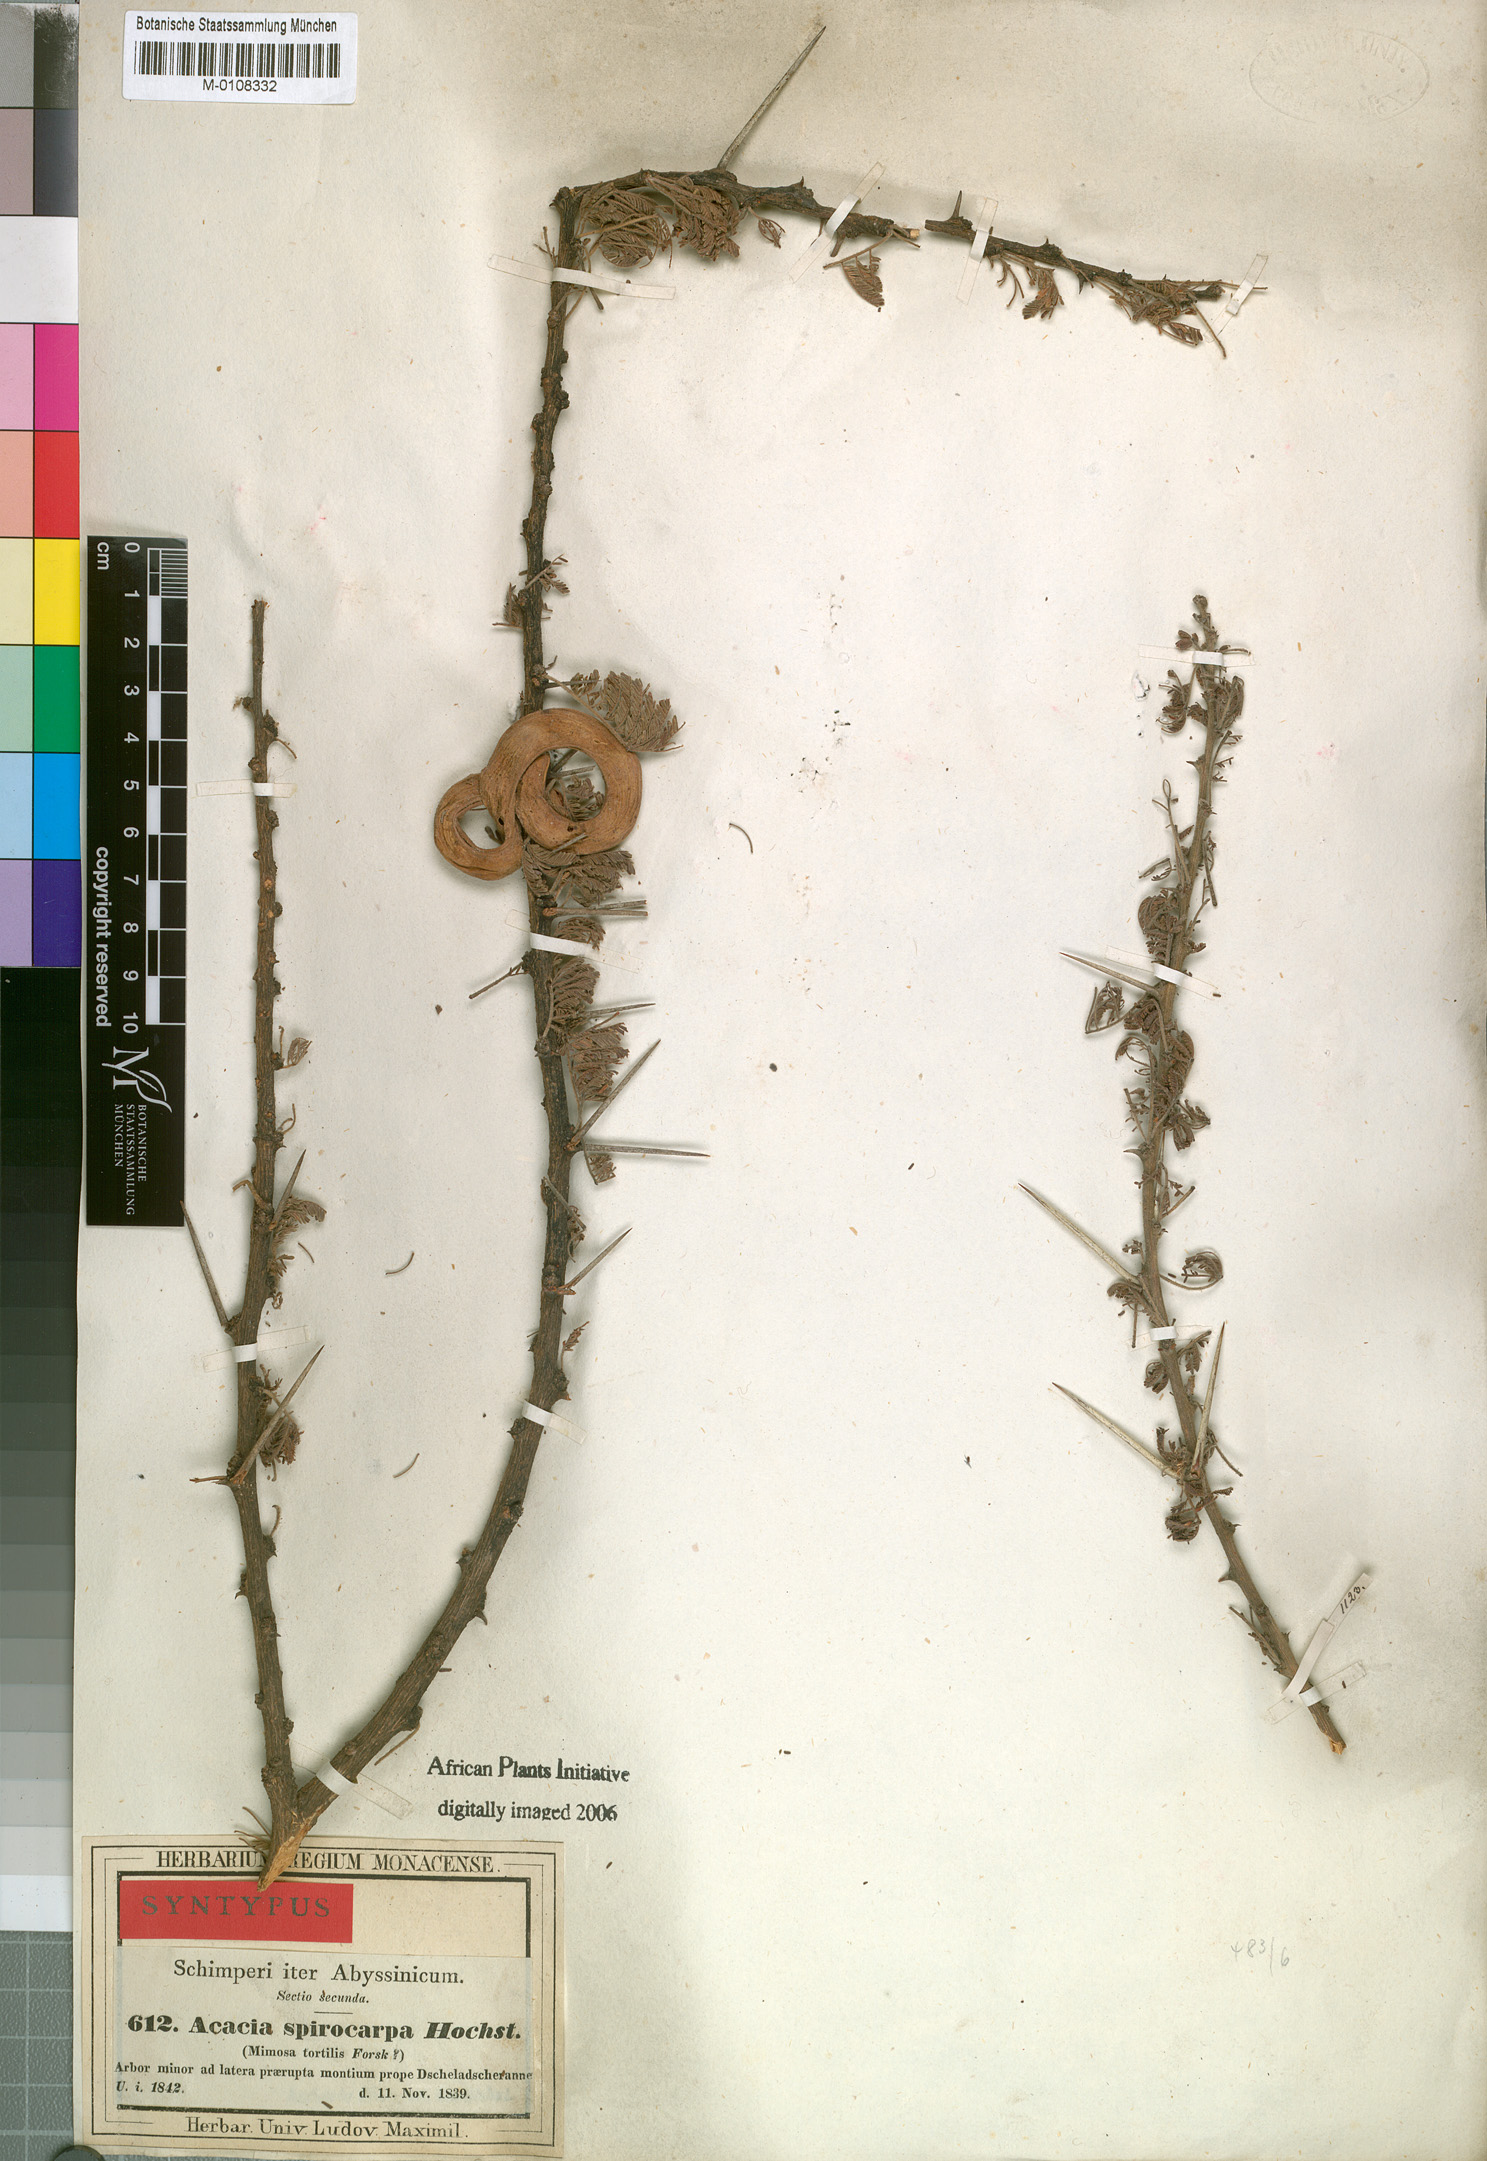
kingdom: Plantae
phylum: Tracheophyta
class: Magnoliopsida
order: Fabales
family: Fabaceae
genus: Vachellia
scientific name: Vachellia tortilis
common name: Umbrella thorn acacia
